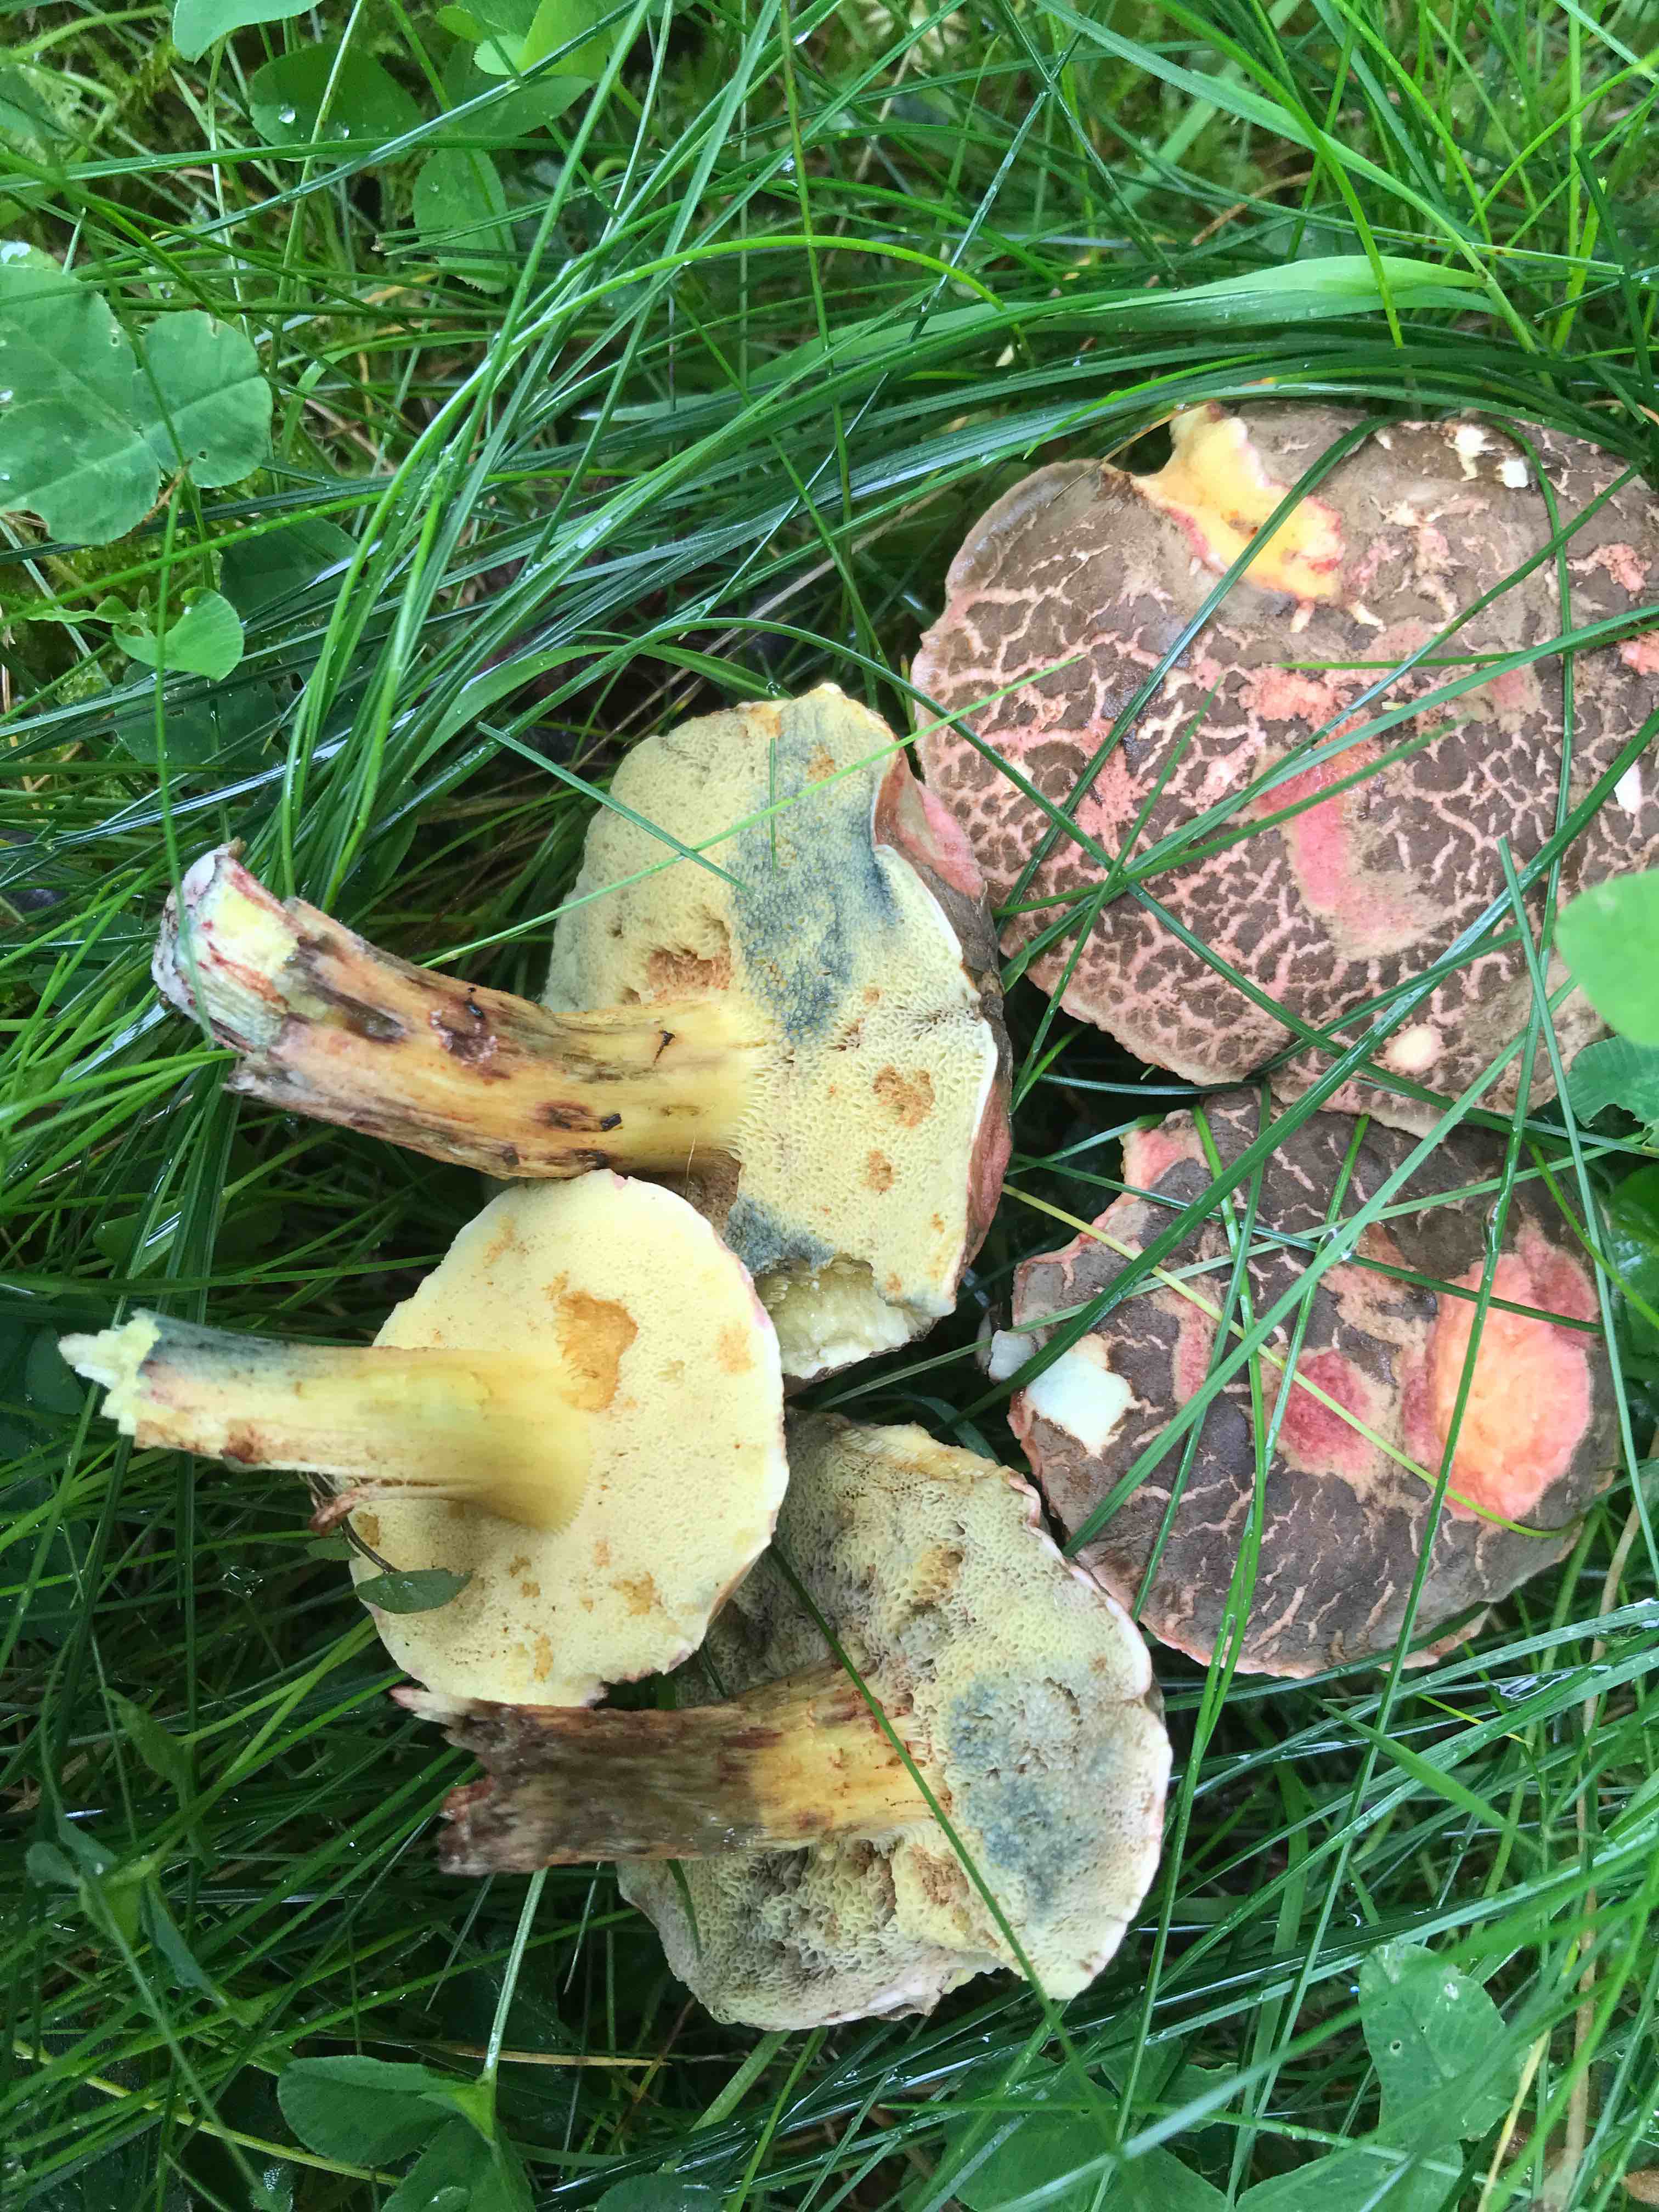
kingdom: Fungi
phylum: Basidiomycota
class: Agaricomycetes
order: Boletales
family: Boletaceae
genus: Xerocomellus
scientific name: Xerocomellus cisalpinus
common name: finsprukken rørhat
